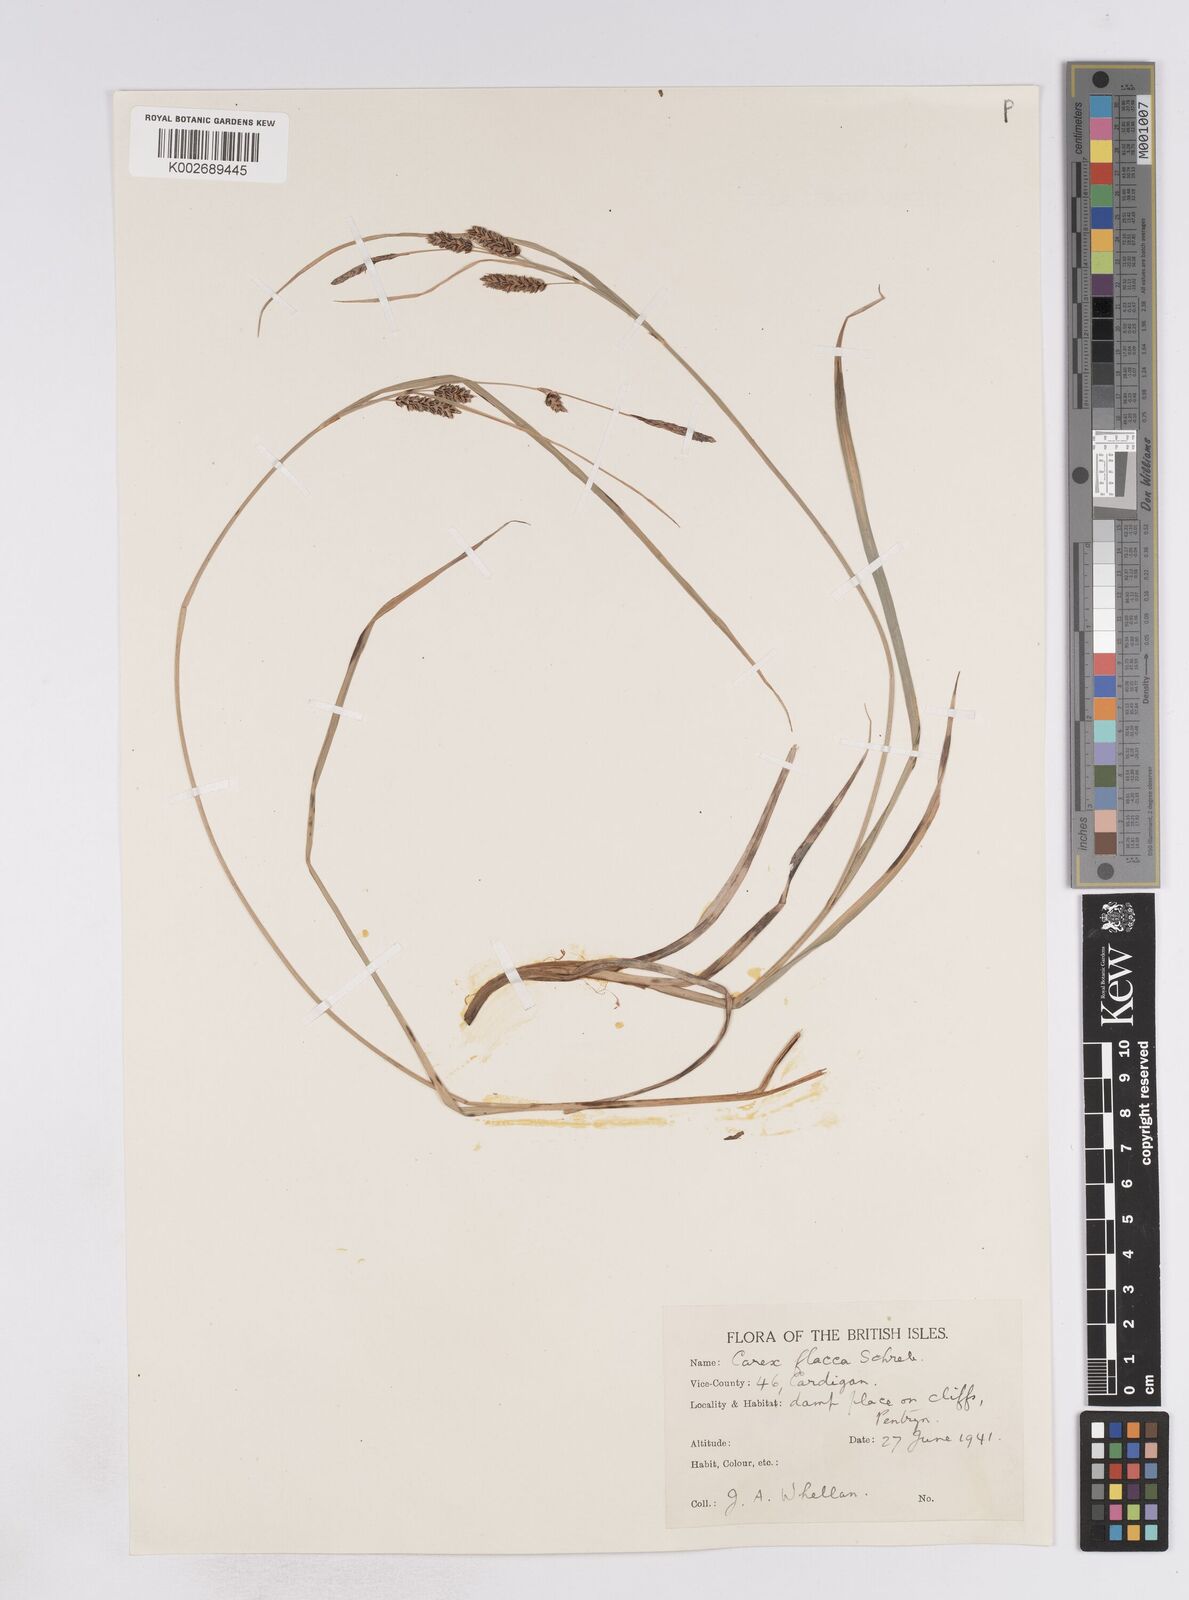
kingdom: Plantae
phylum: Tracheophyta
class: Liliopsida
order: Poales
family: Cyperaceae
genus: Carex
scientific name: Carex flacca
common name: Glaucous sedge
